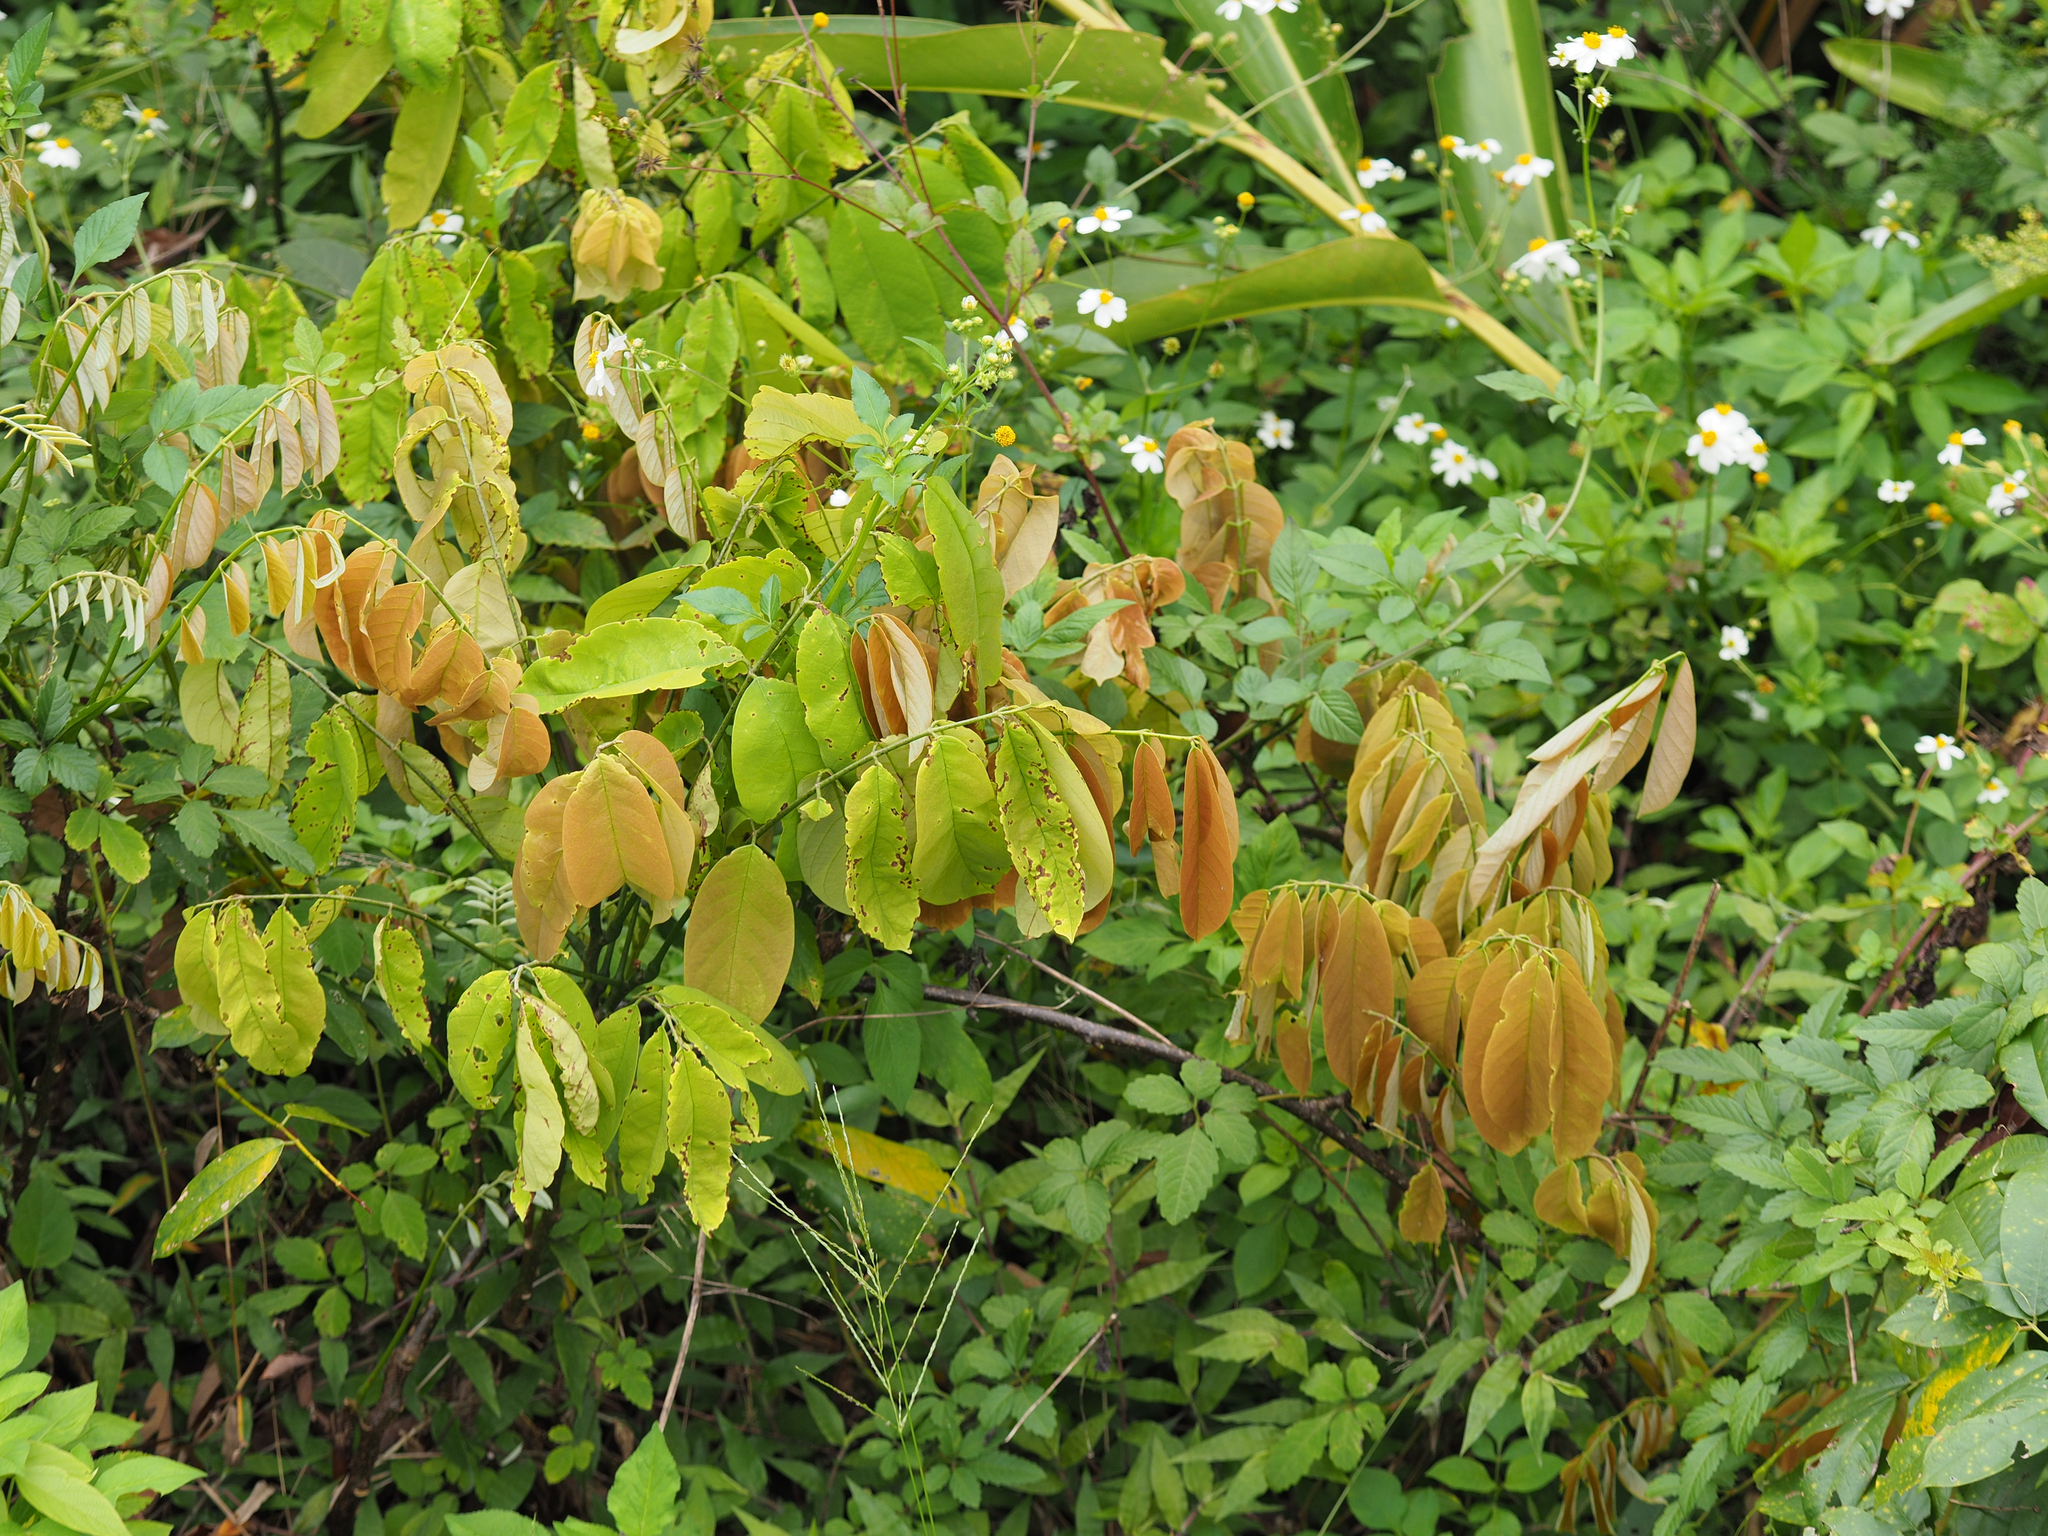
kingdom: Plantae
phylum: Tracheophyta
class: Magnoliopsida
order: Fabales
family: Fabaceae
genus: Millettia
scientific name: Millettia pachycarpa
